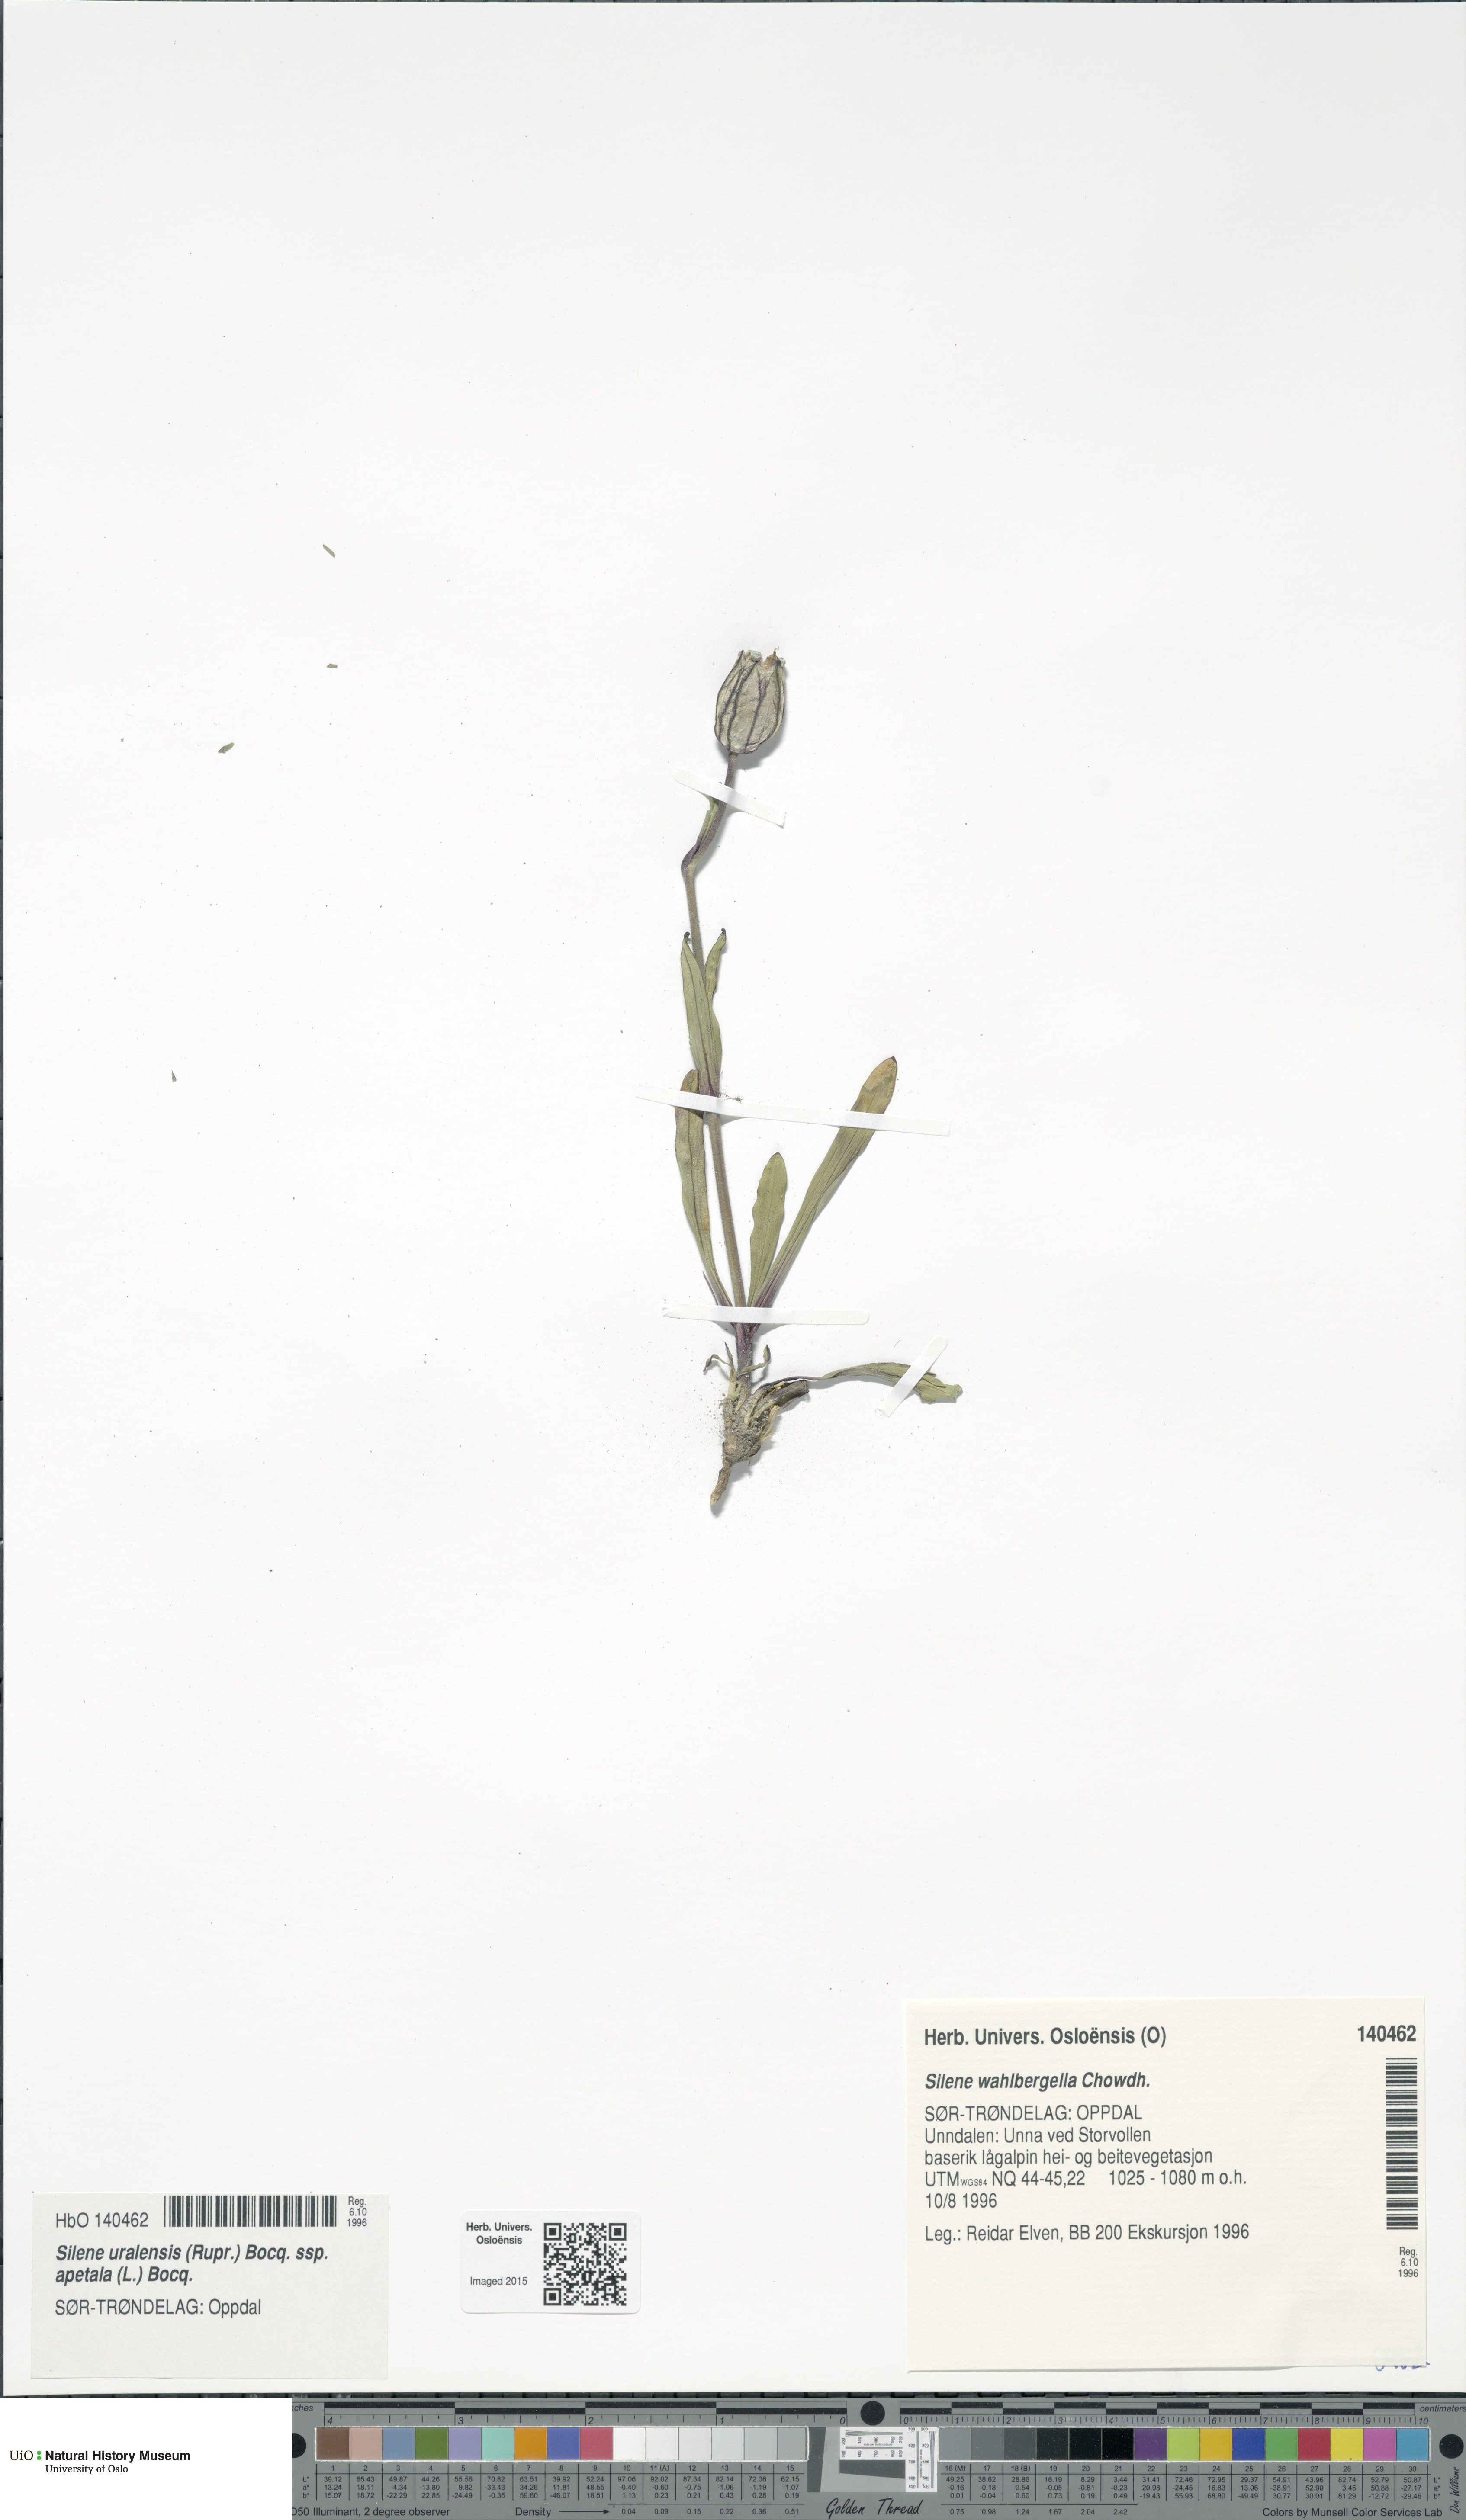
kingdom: Plantae
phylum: Tracheophyta
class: Magnoliopsida
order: Caryophyllales
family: Caryophyllaceae
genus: Silene
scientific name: Silene wahlbergella
